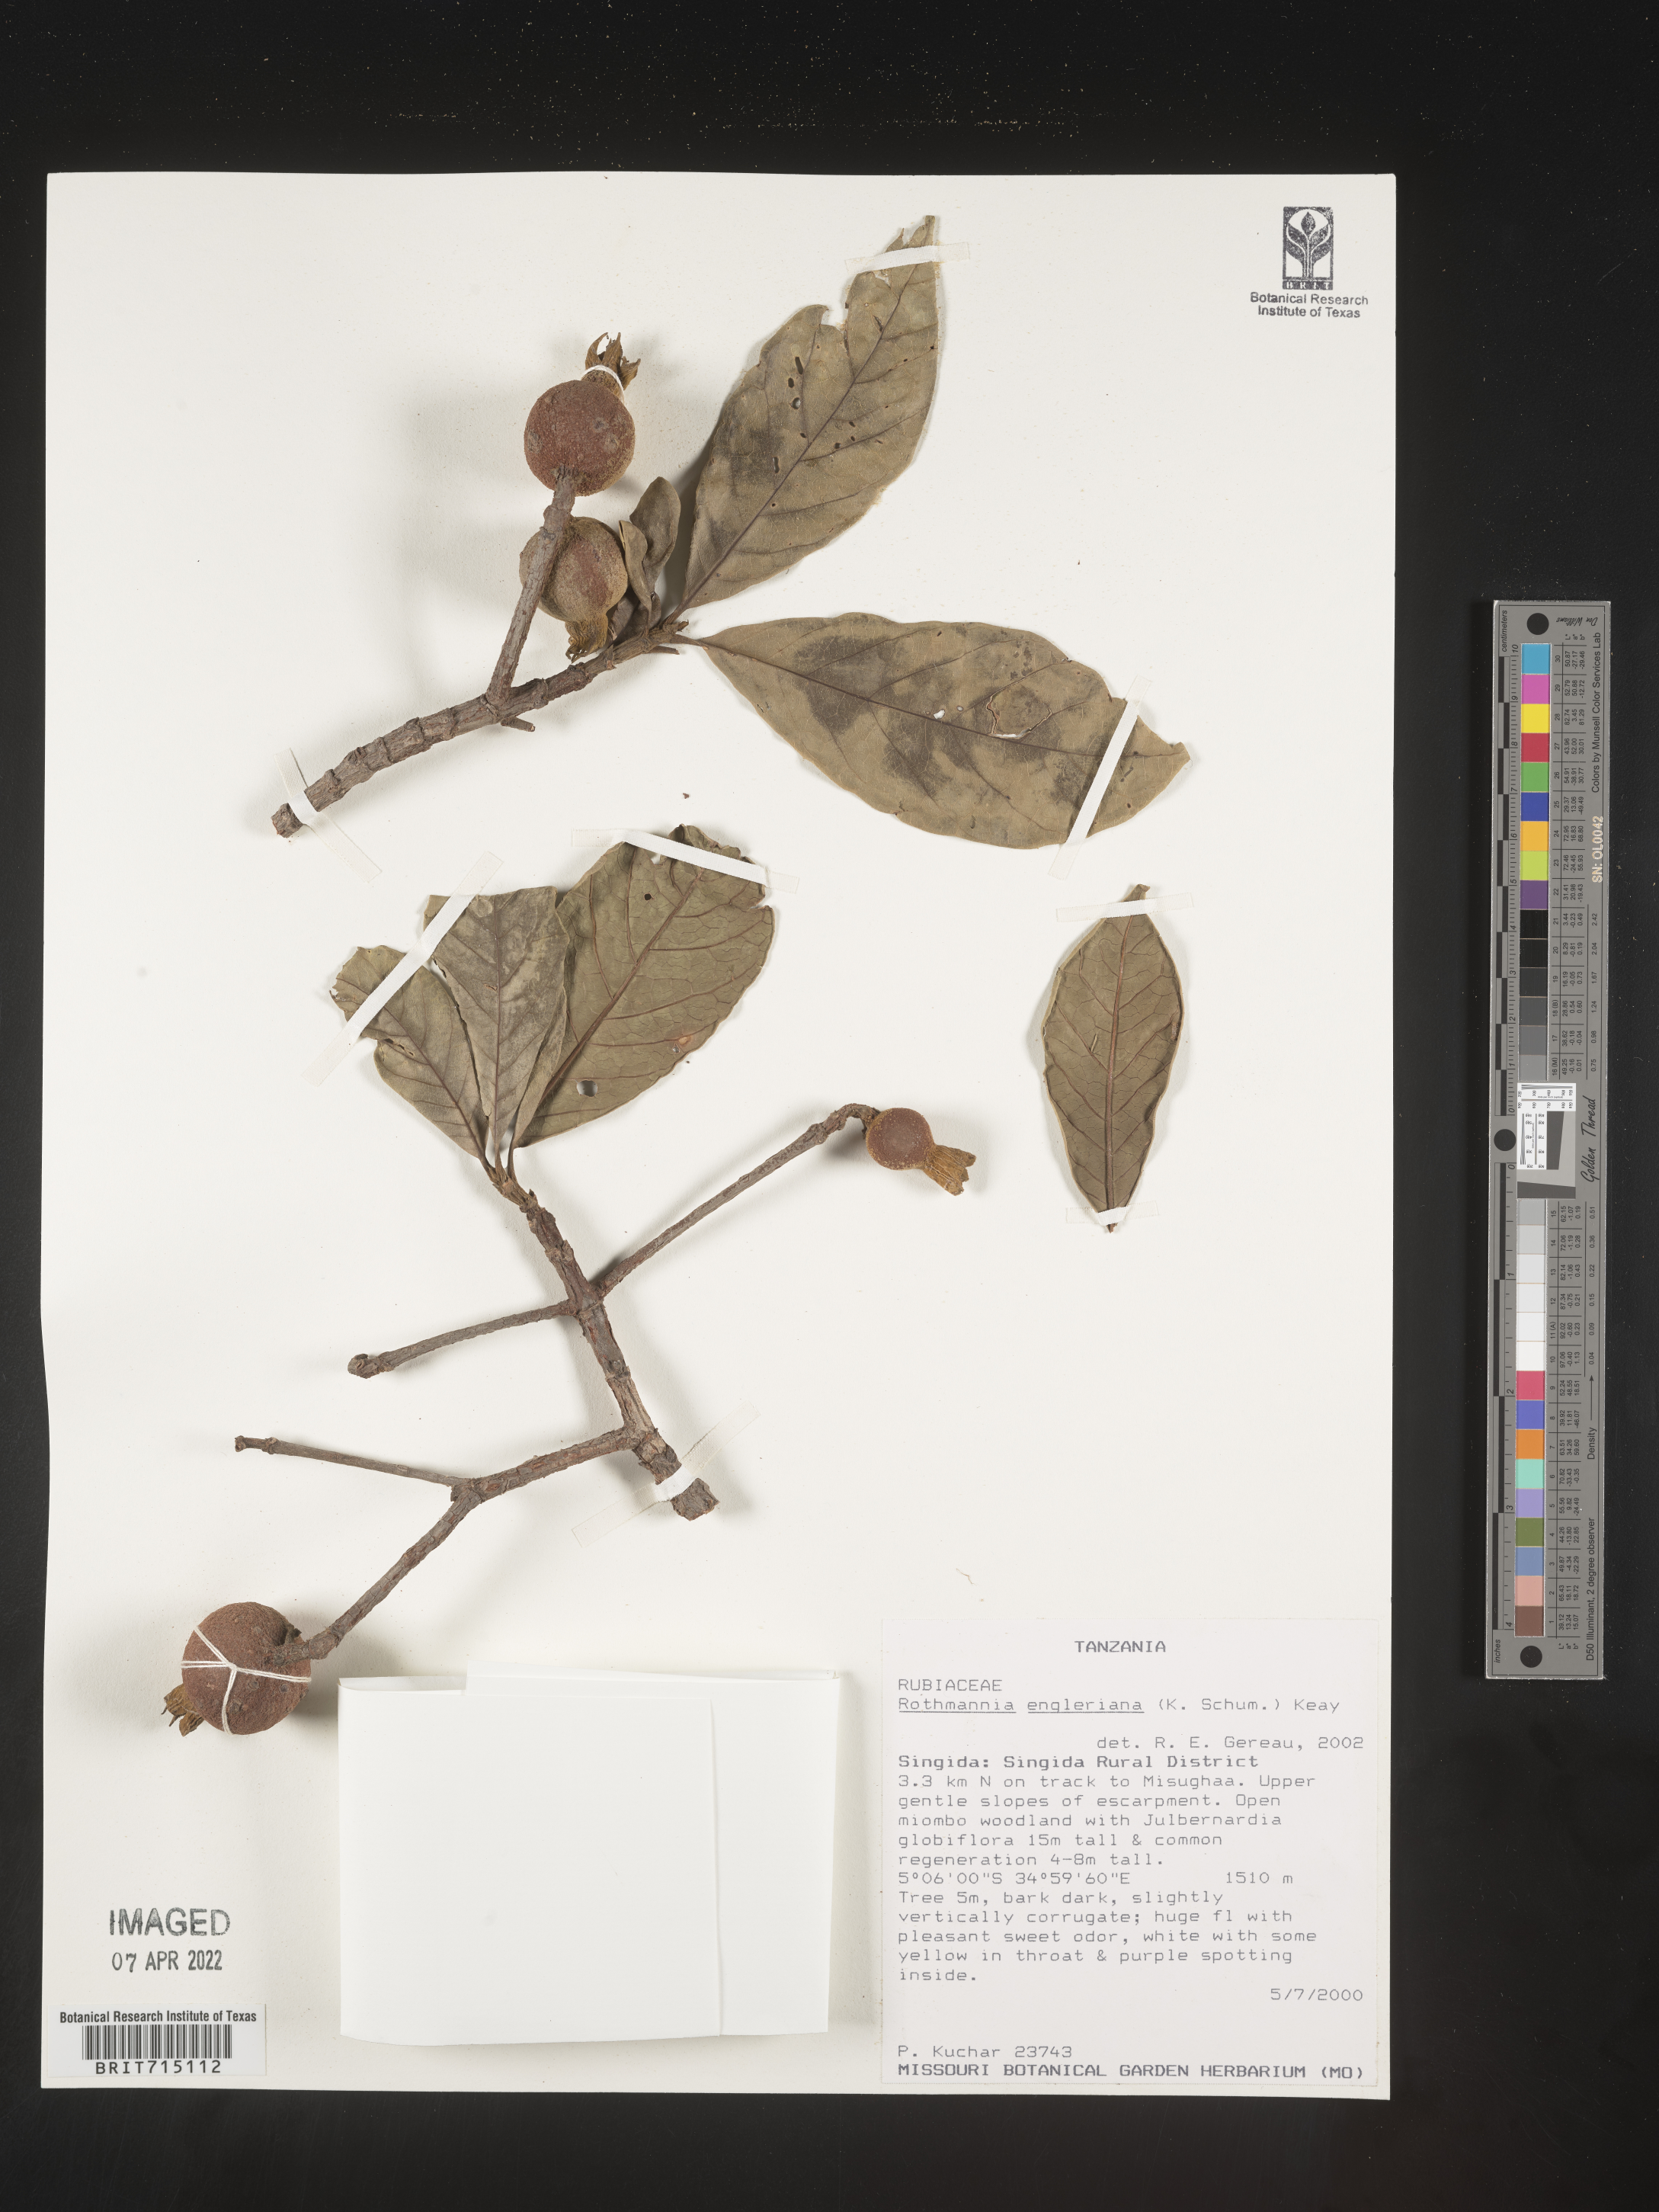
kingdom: Plantae
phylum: Tracheophyta
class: Magnoliopsida
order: Gentianales
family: Rubiaceae
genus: Rothmannia
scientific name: Rothmannia
